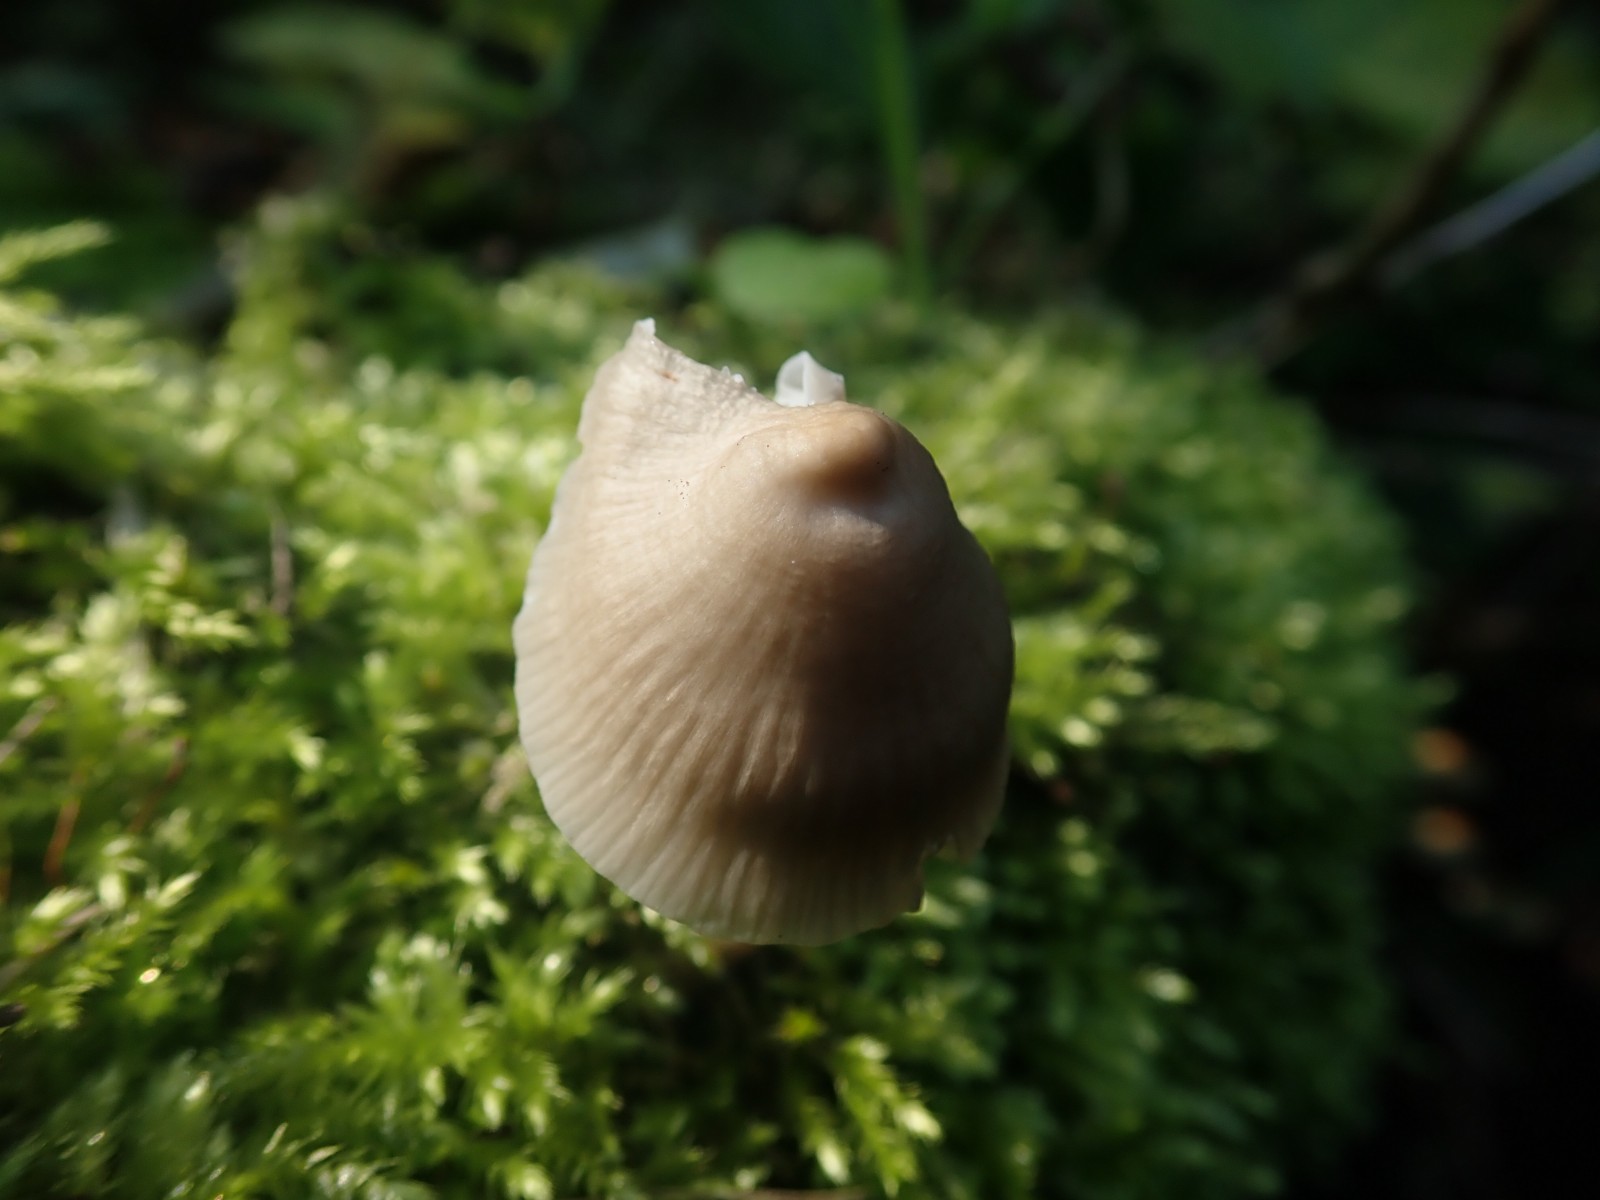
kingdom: Fungi
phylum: Basidiomycota
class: Agaricomycetes
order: Agaricales
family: Mycenaceae
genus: Mycena
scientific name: Mycena galericulata
